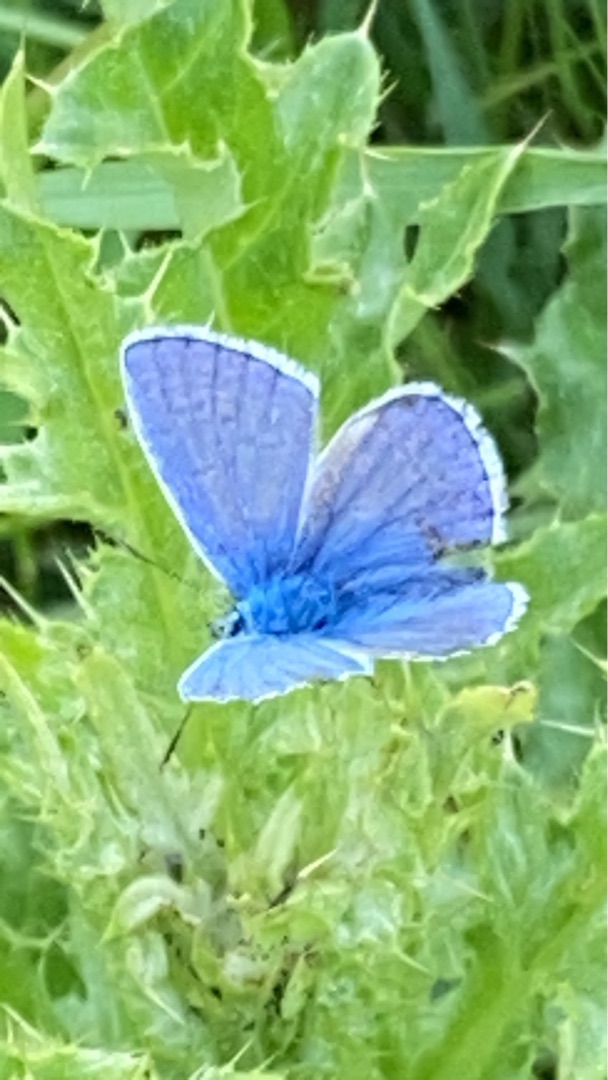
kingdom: Animalia
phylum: Arthropoda
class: Insecta
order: Lepidoptera
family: Lycaenidae
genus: Polyommatus
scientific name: Polyommatus icarus
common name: Almindelig blåfugl
